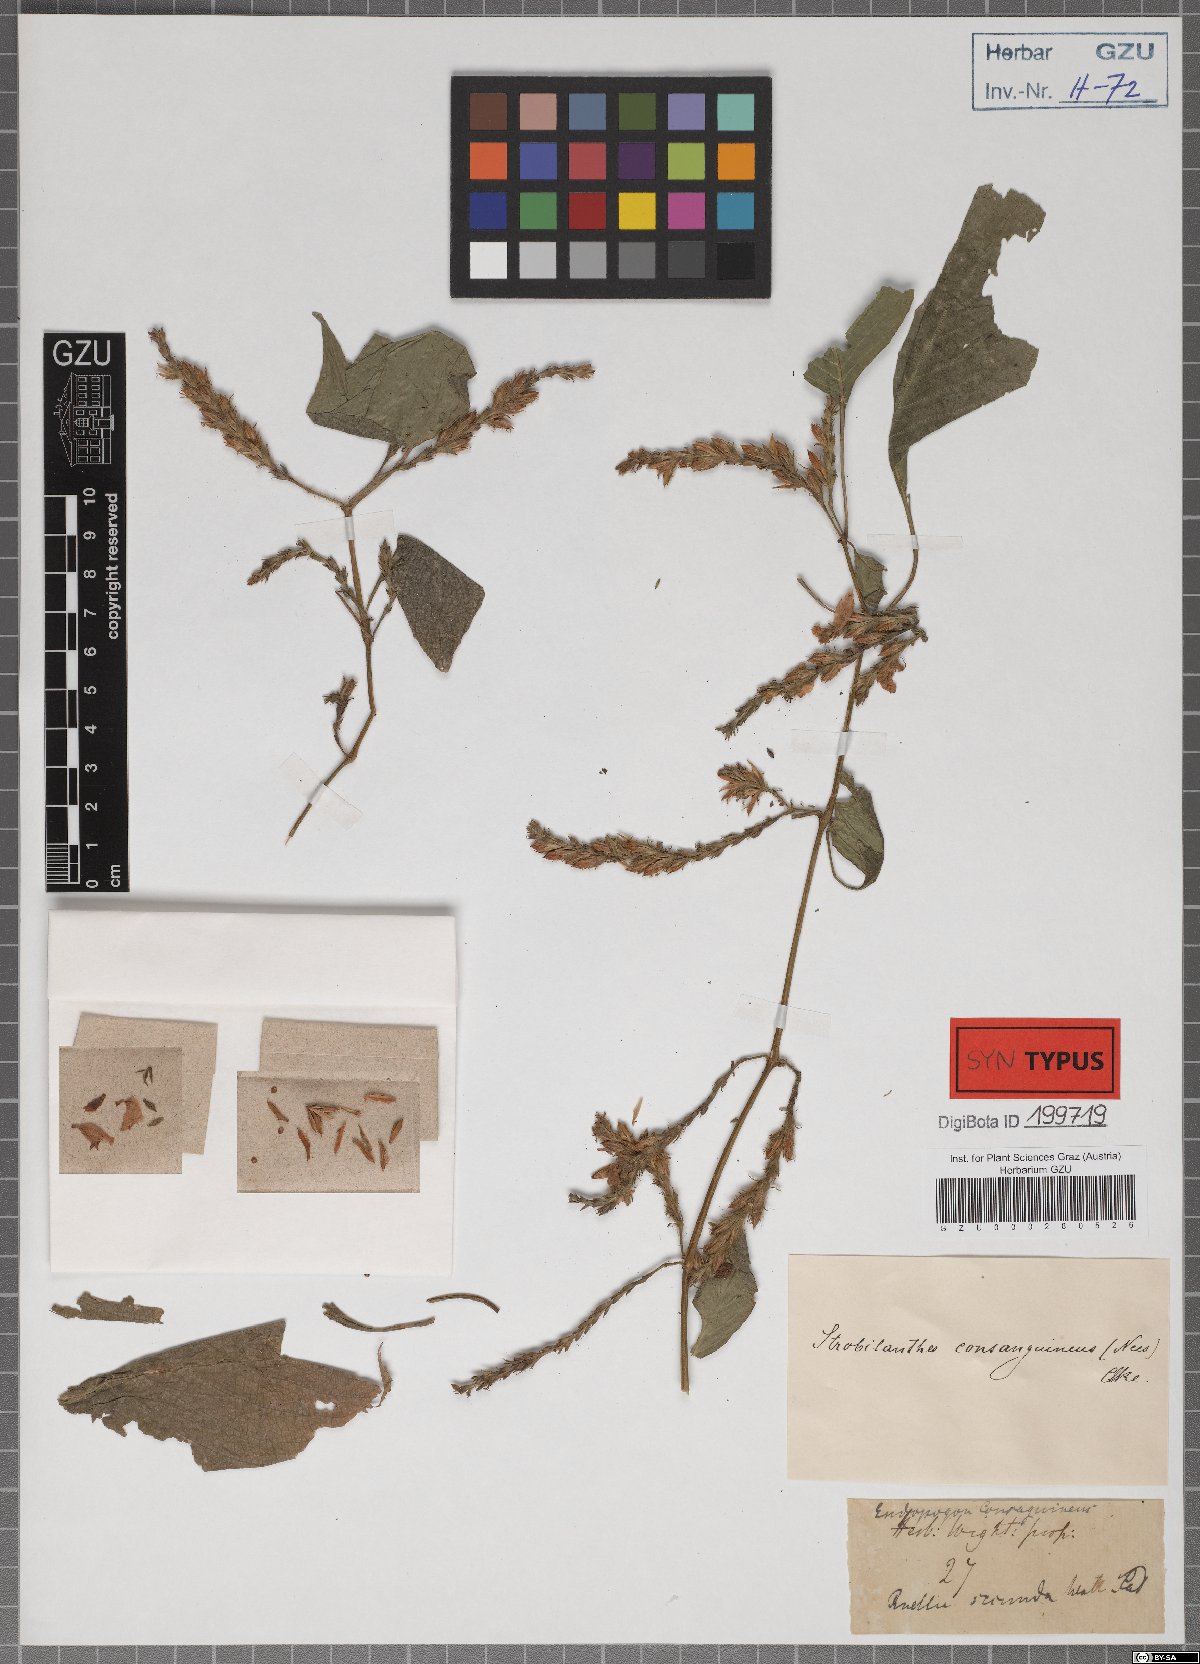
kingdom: Plantae
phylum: Tracheophyta
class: Magnoliopsida
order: Lamiales
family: Acanthaceae
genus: Strobilanthes
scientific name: Strobilanthes consanguinea
